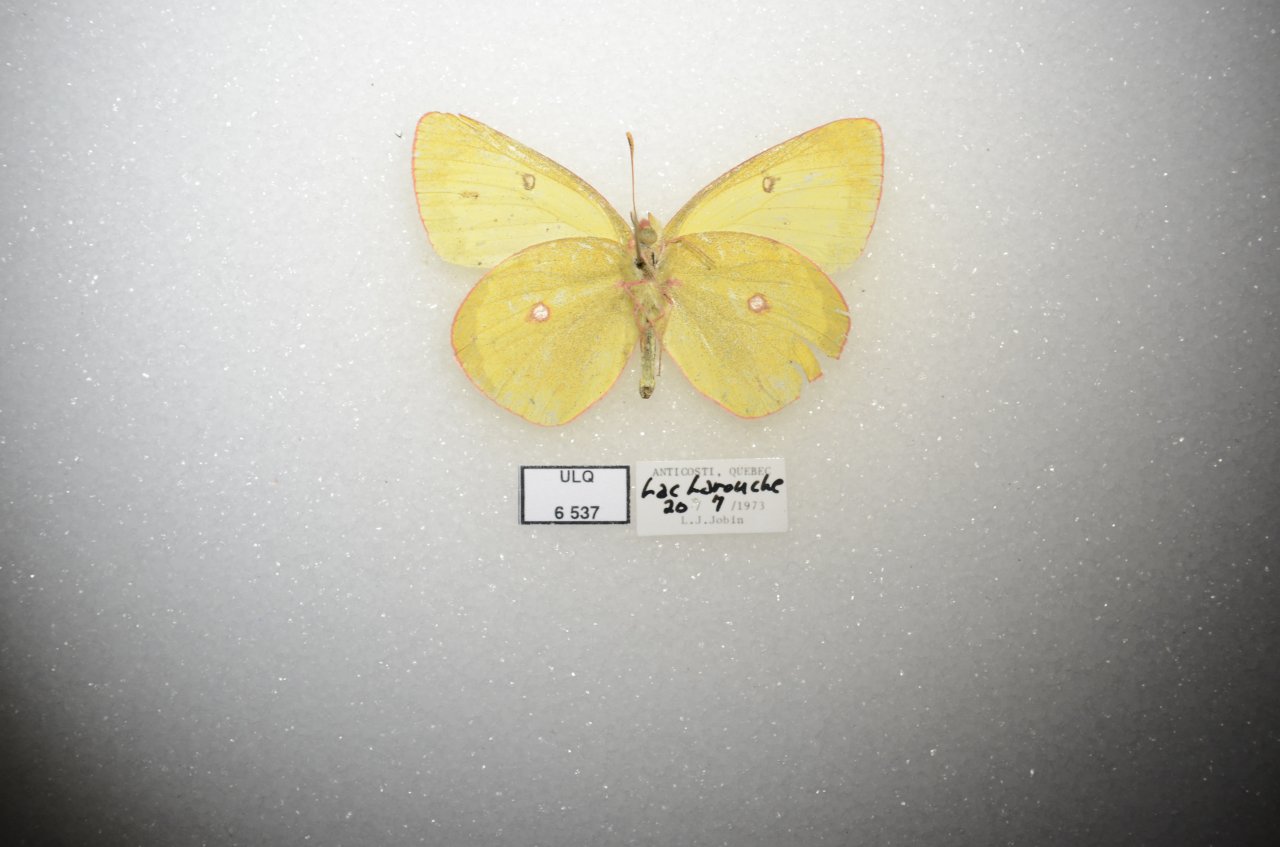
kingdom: Animalia
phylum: Arthropoda
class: Insecta
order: Lepidoptera
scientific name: Lepidoptera
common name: Butterflies
